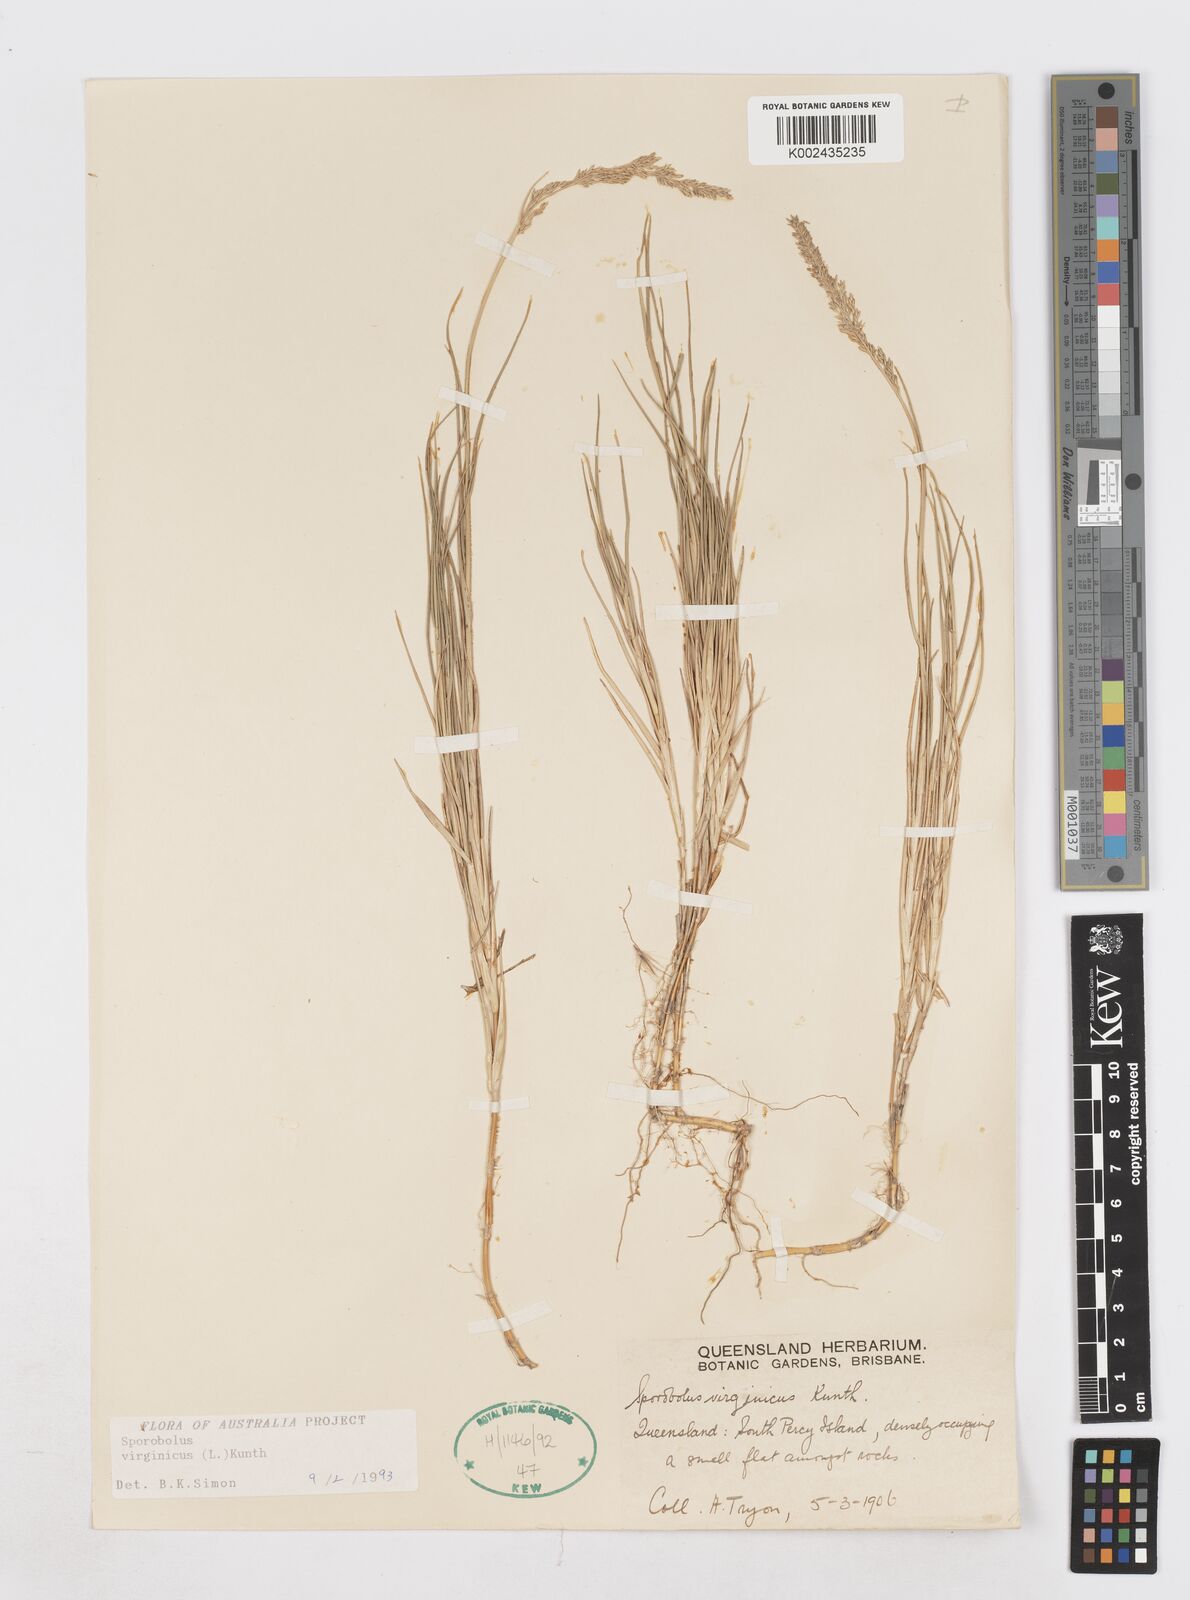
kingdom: Plantae
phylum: Tracheophyta
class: Liliopsida
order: Poales
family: Poaceae
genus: Sporobolus
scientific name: Sporobolus virginicus
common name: Beach dropseed
